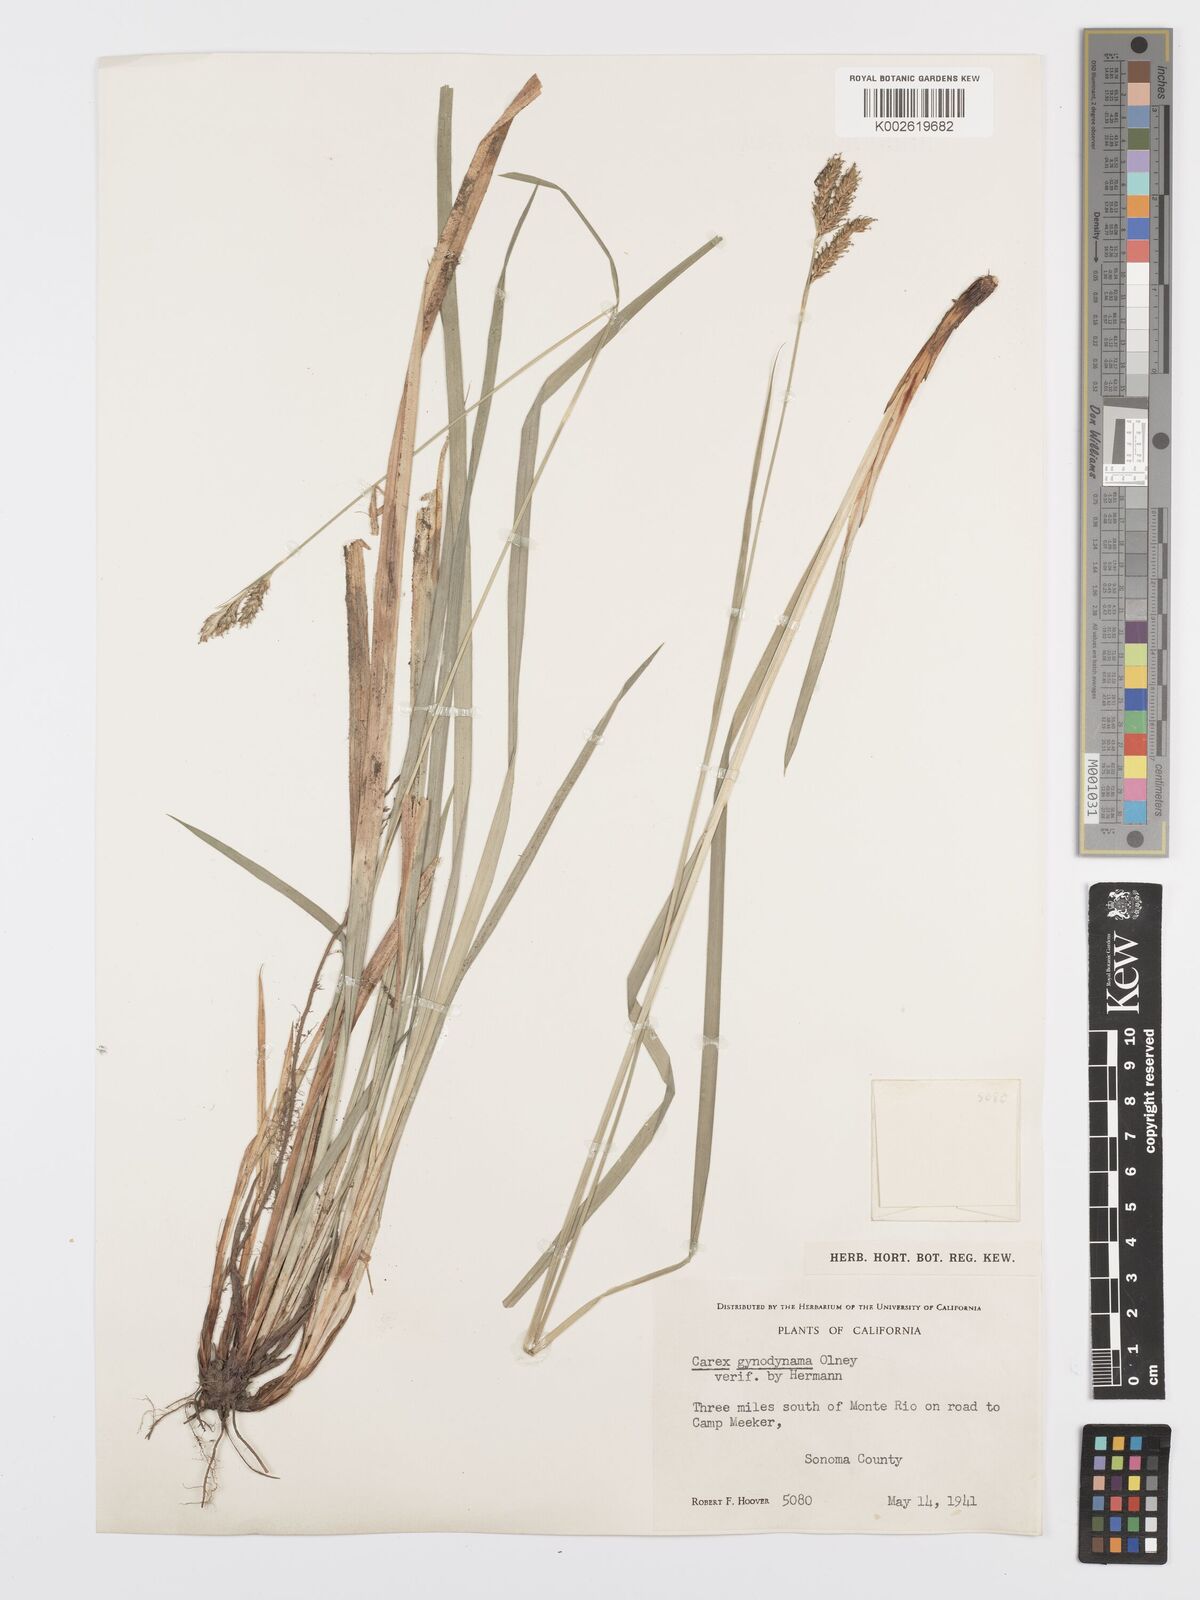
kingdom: Plantae
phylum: Tracheophyta
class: Liliopsida
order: Poales
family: Cyperaceae
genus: Carex
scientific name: Carex gynodynama
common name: Olney's hairy sedge
